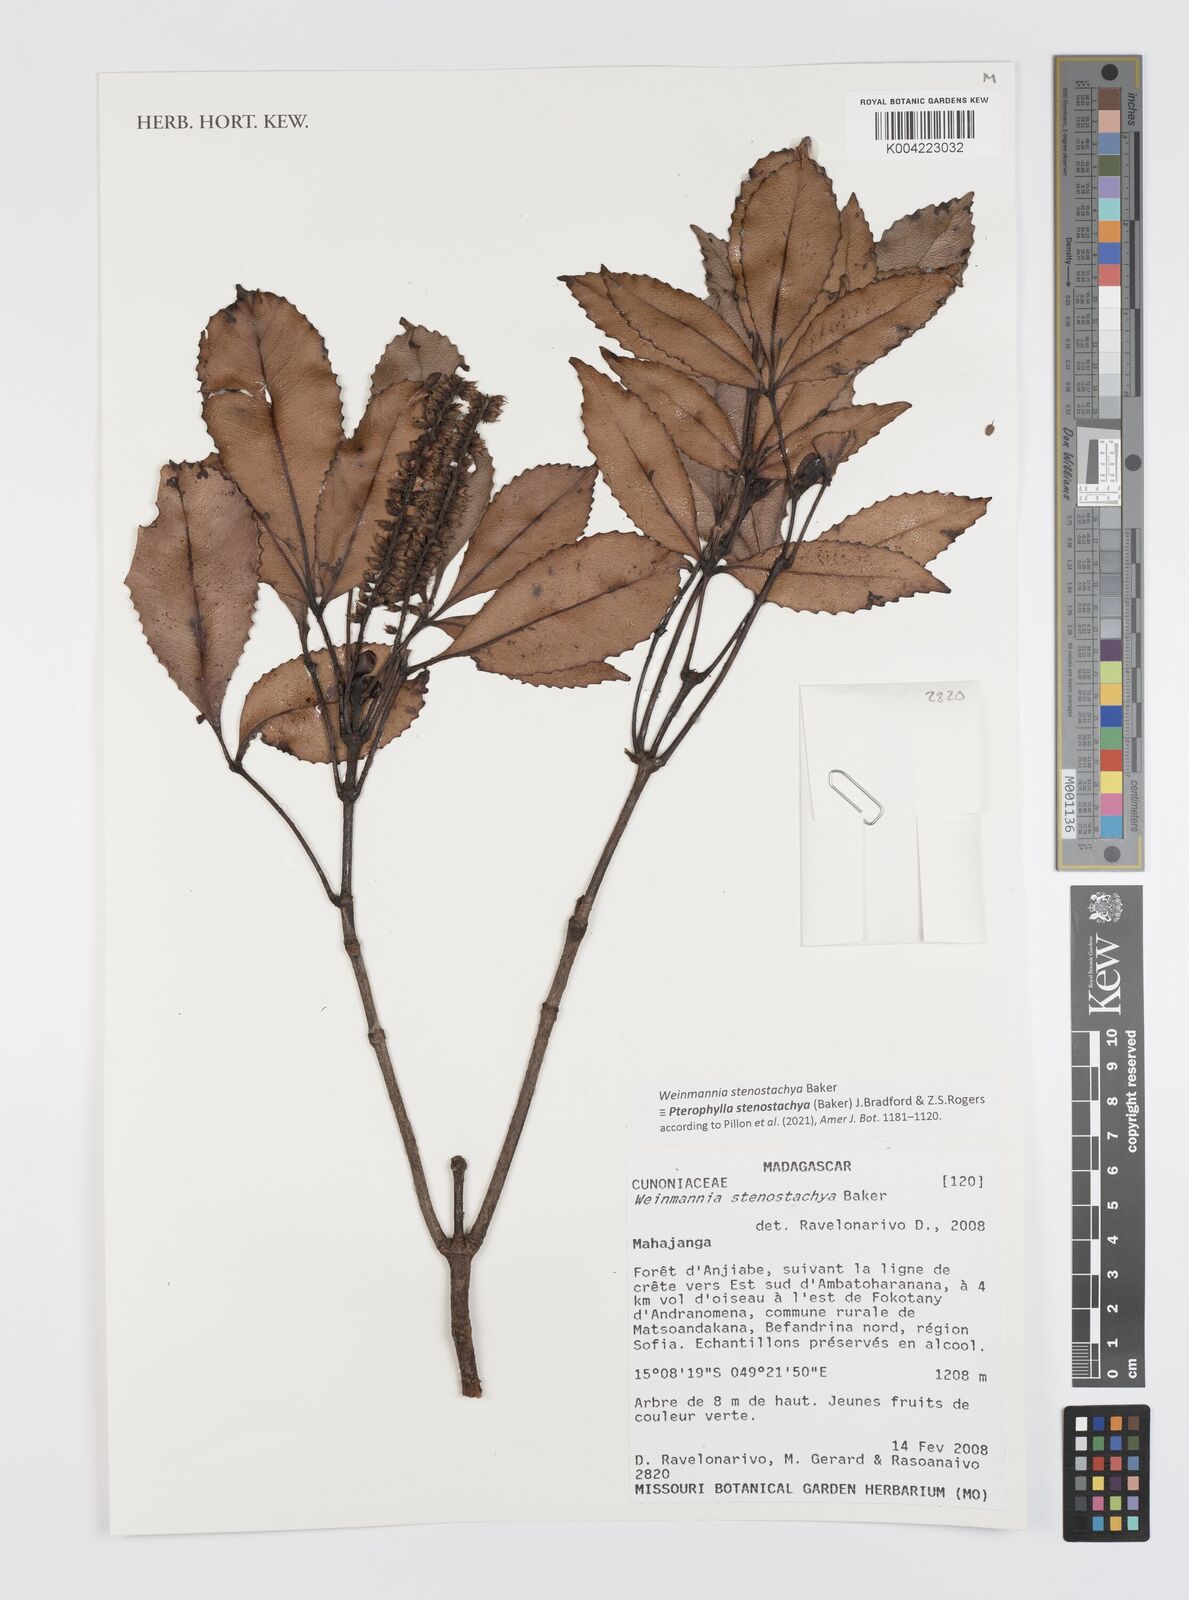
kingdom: Plantae
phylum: Tracheophyta
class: Magnoliopsida
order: Oxalidales
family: Cunoniaceae
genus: Pterophylla
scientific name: Pterophylla stenostachya
